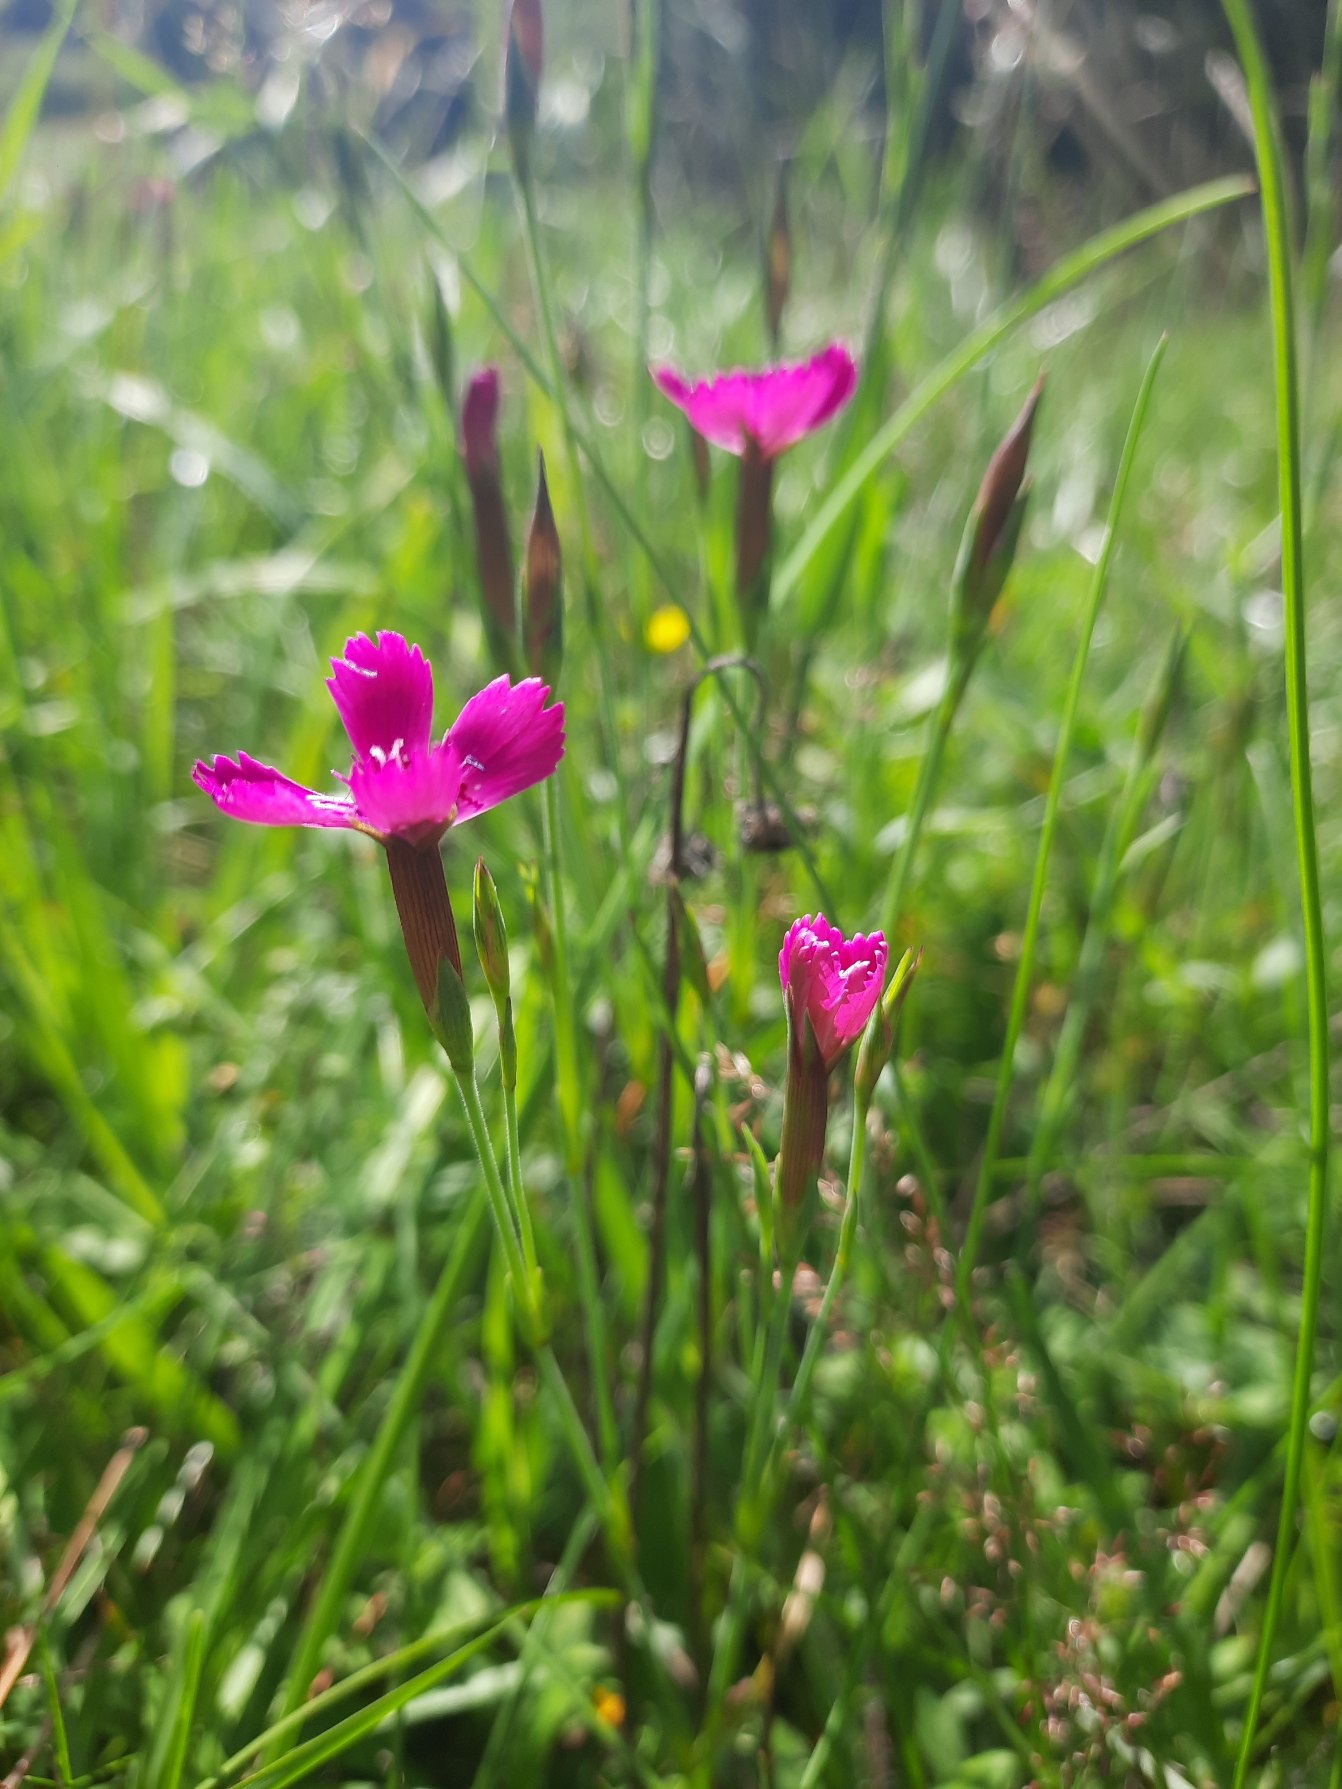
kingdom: Plantae
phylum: Tracheophyta
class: Magnoliopsida
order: Caryophyllales
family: Caryophyllaceae
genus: Dianthus
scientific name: Dianthus deltoides
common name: Bakke-nellike
